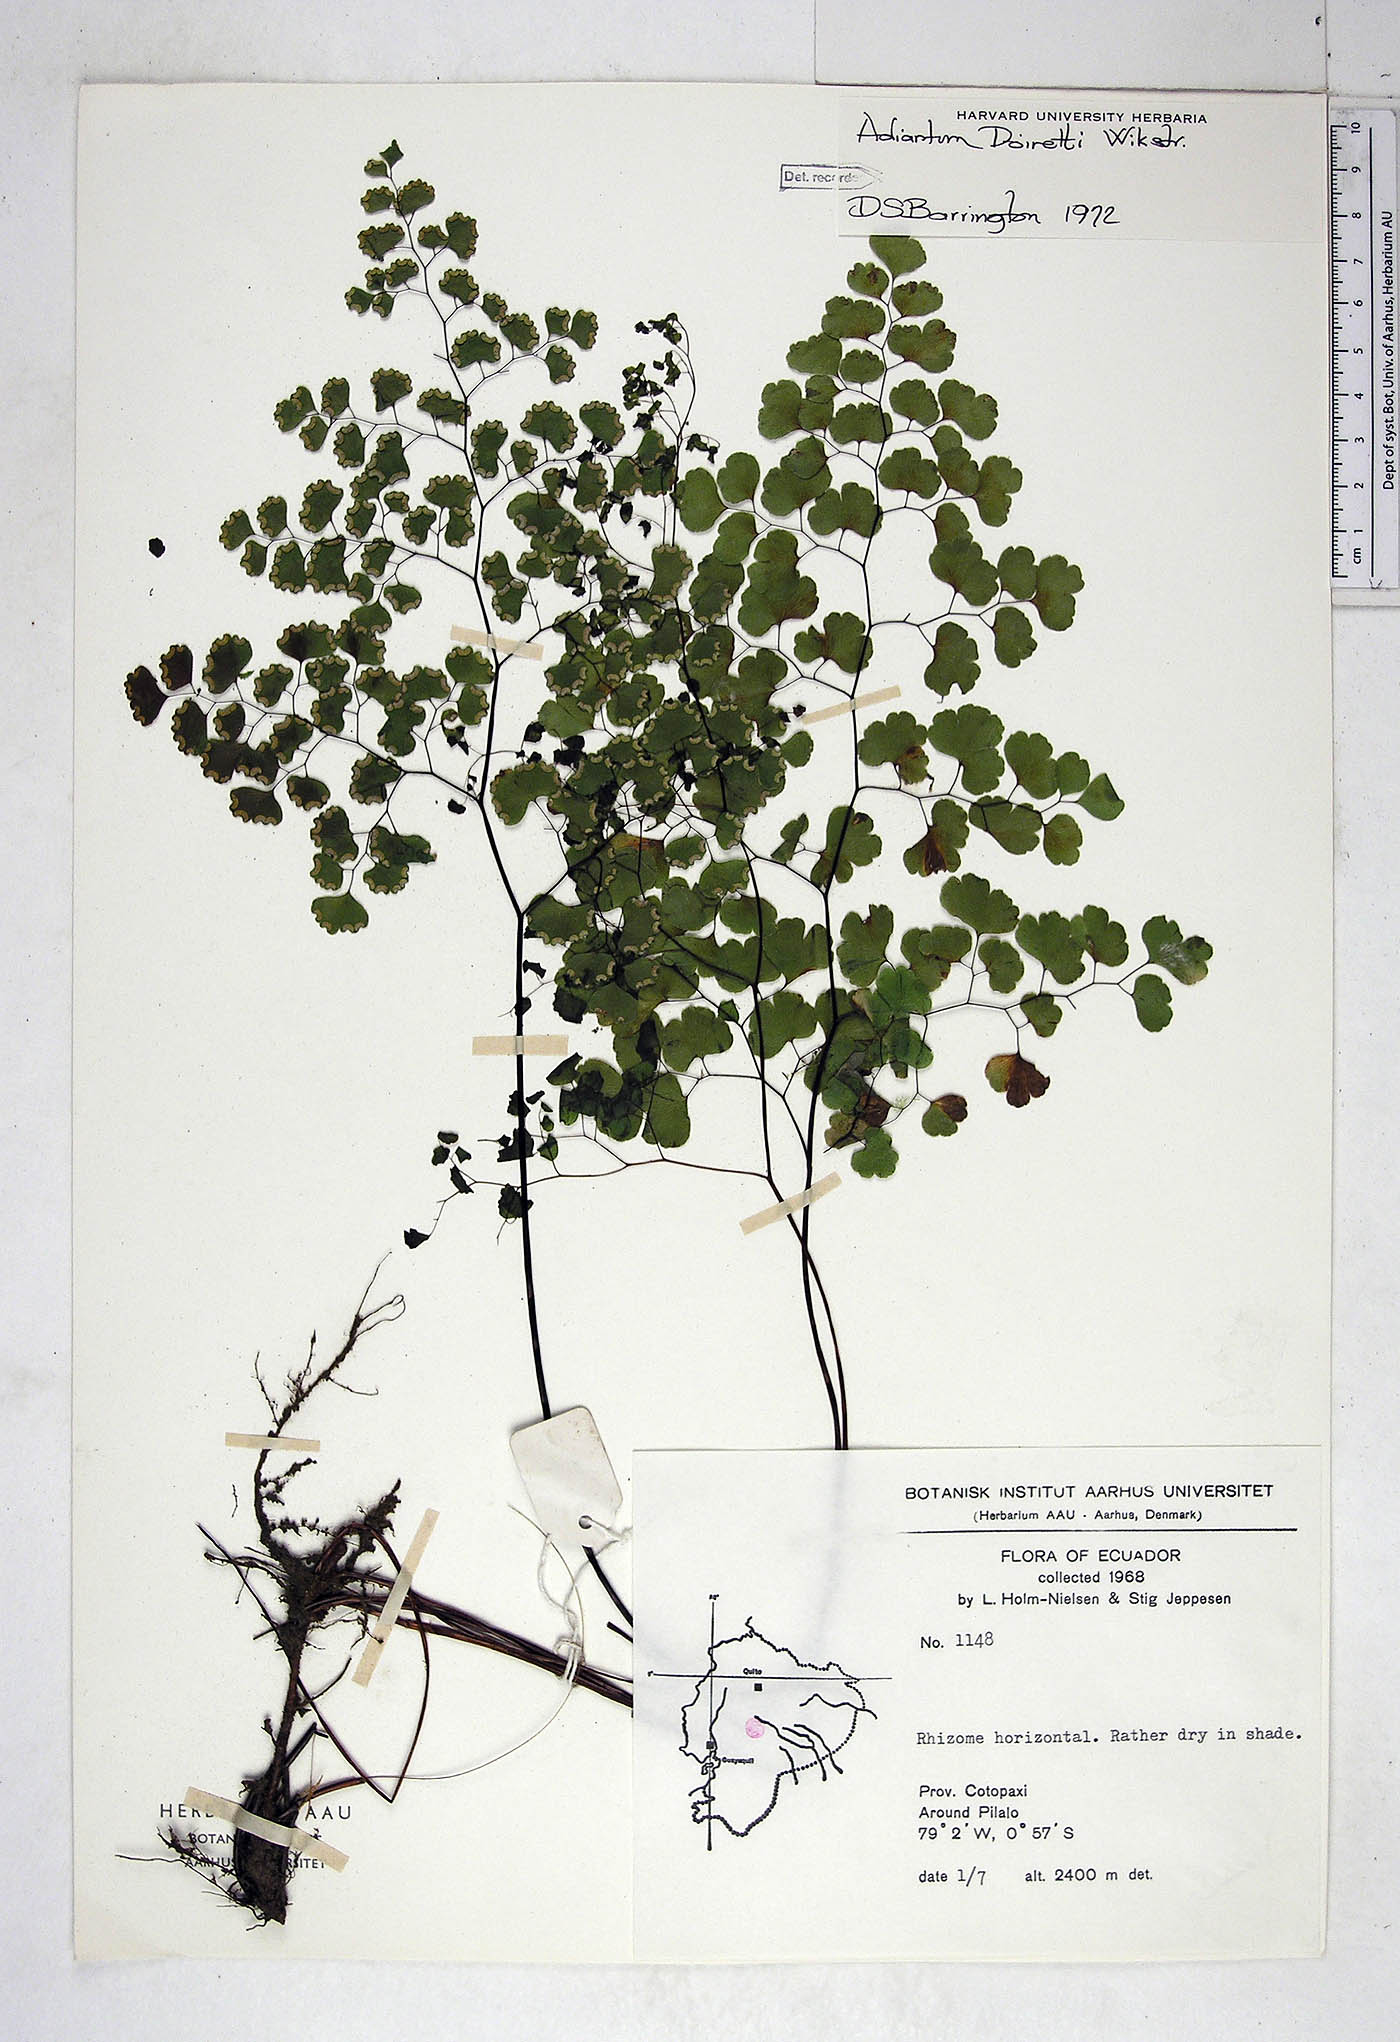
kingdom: Plantae
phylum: Tracheophyta
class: Polypodiopsida
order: Polypodiales
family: Pteridaceae
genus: Adiantum
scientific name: Adiantum poiretii
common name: Mexican maidenhair
